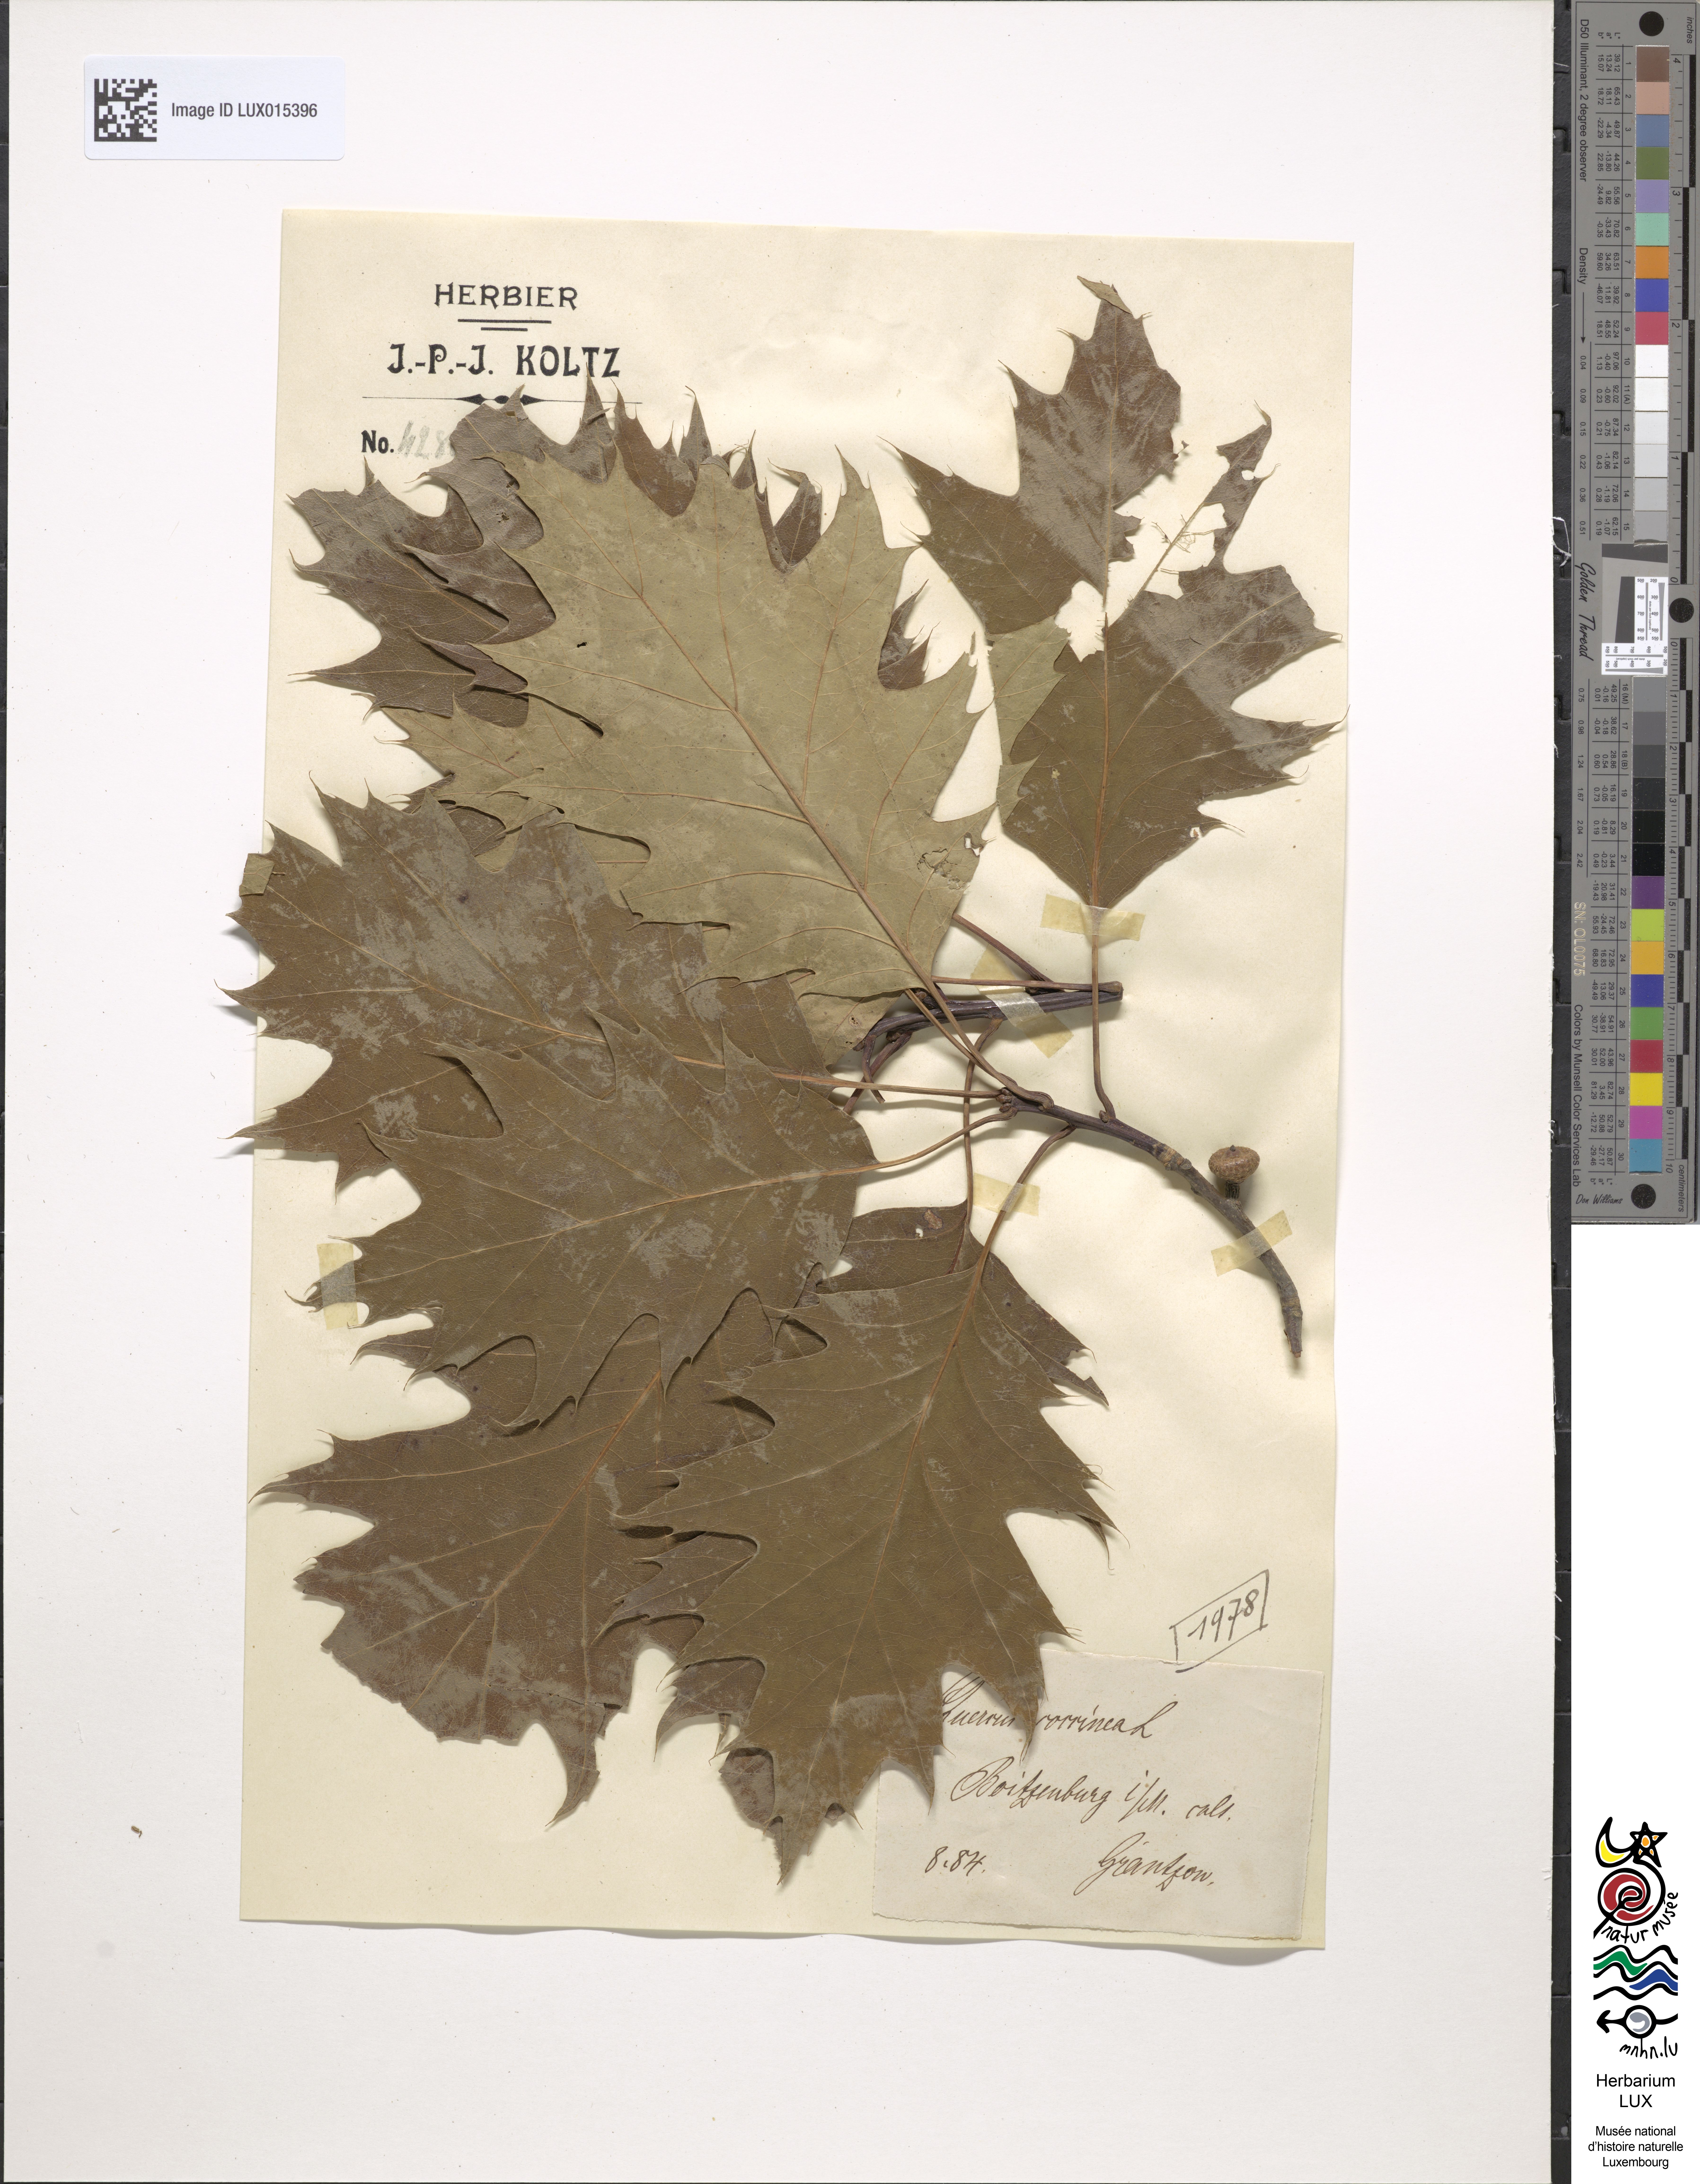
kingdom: Plantae
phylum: Tracheophyta
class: Magnoliopsida
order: Fagales
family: Fagaceae
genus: Quercus
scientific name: Quercus coccifera
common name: Kermes oak
